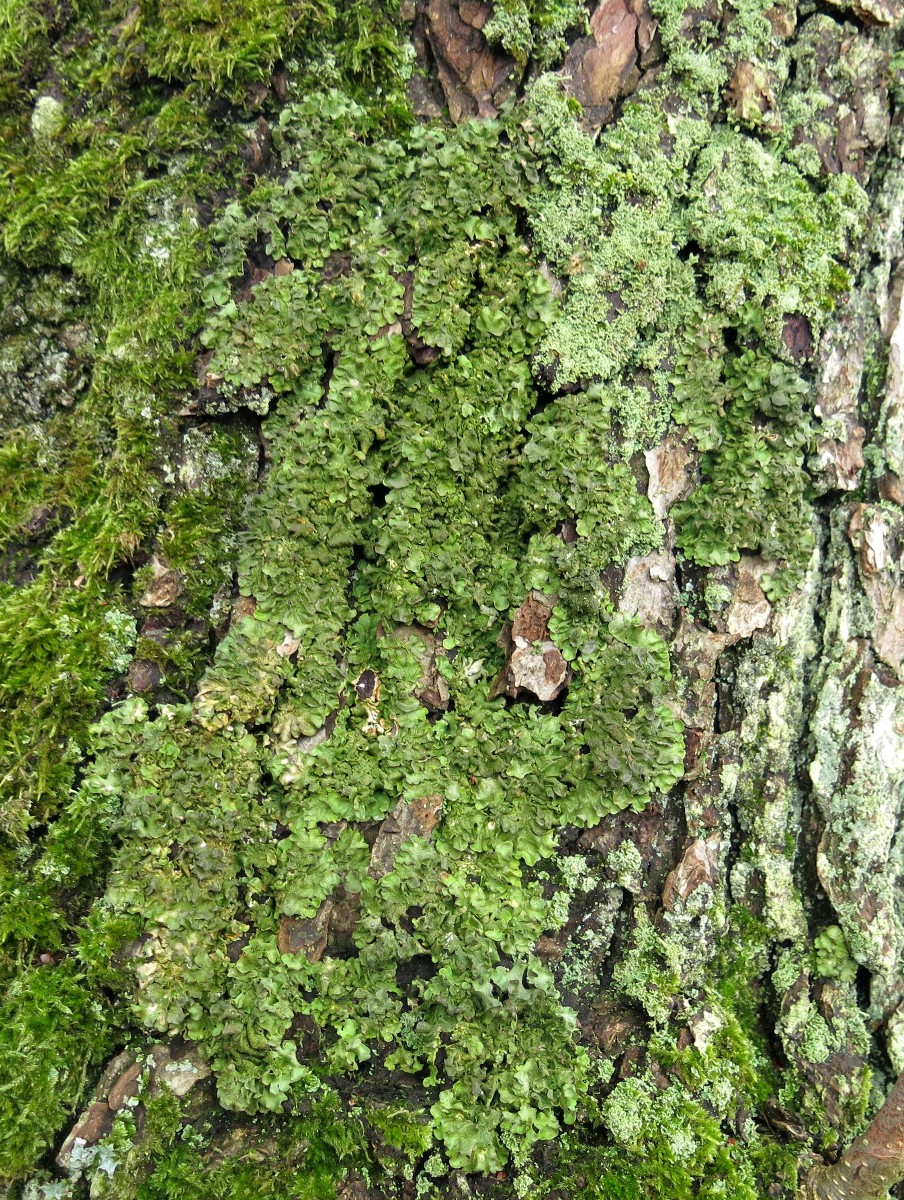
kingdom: Fungi
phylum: Ascomycota
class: Lecanoromycetes
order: Lecanorales
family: Parmeliaceae
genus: Pleurosticta
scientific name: Pleurosticta acetabulum
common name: stor skållav
